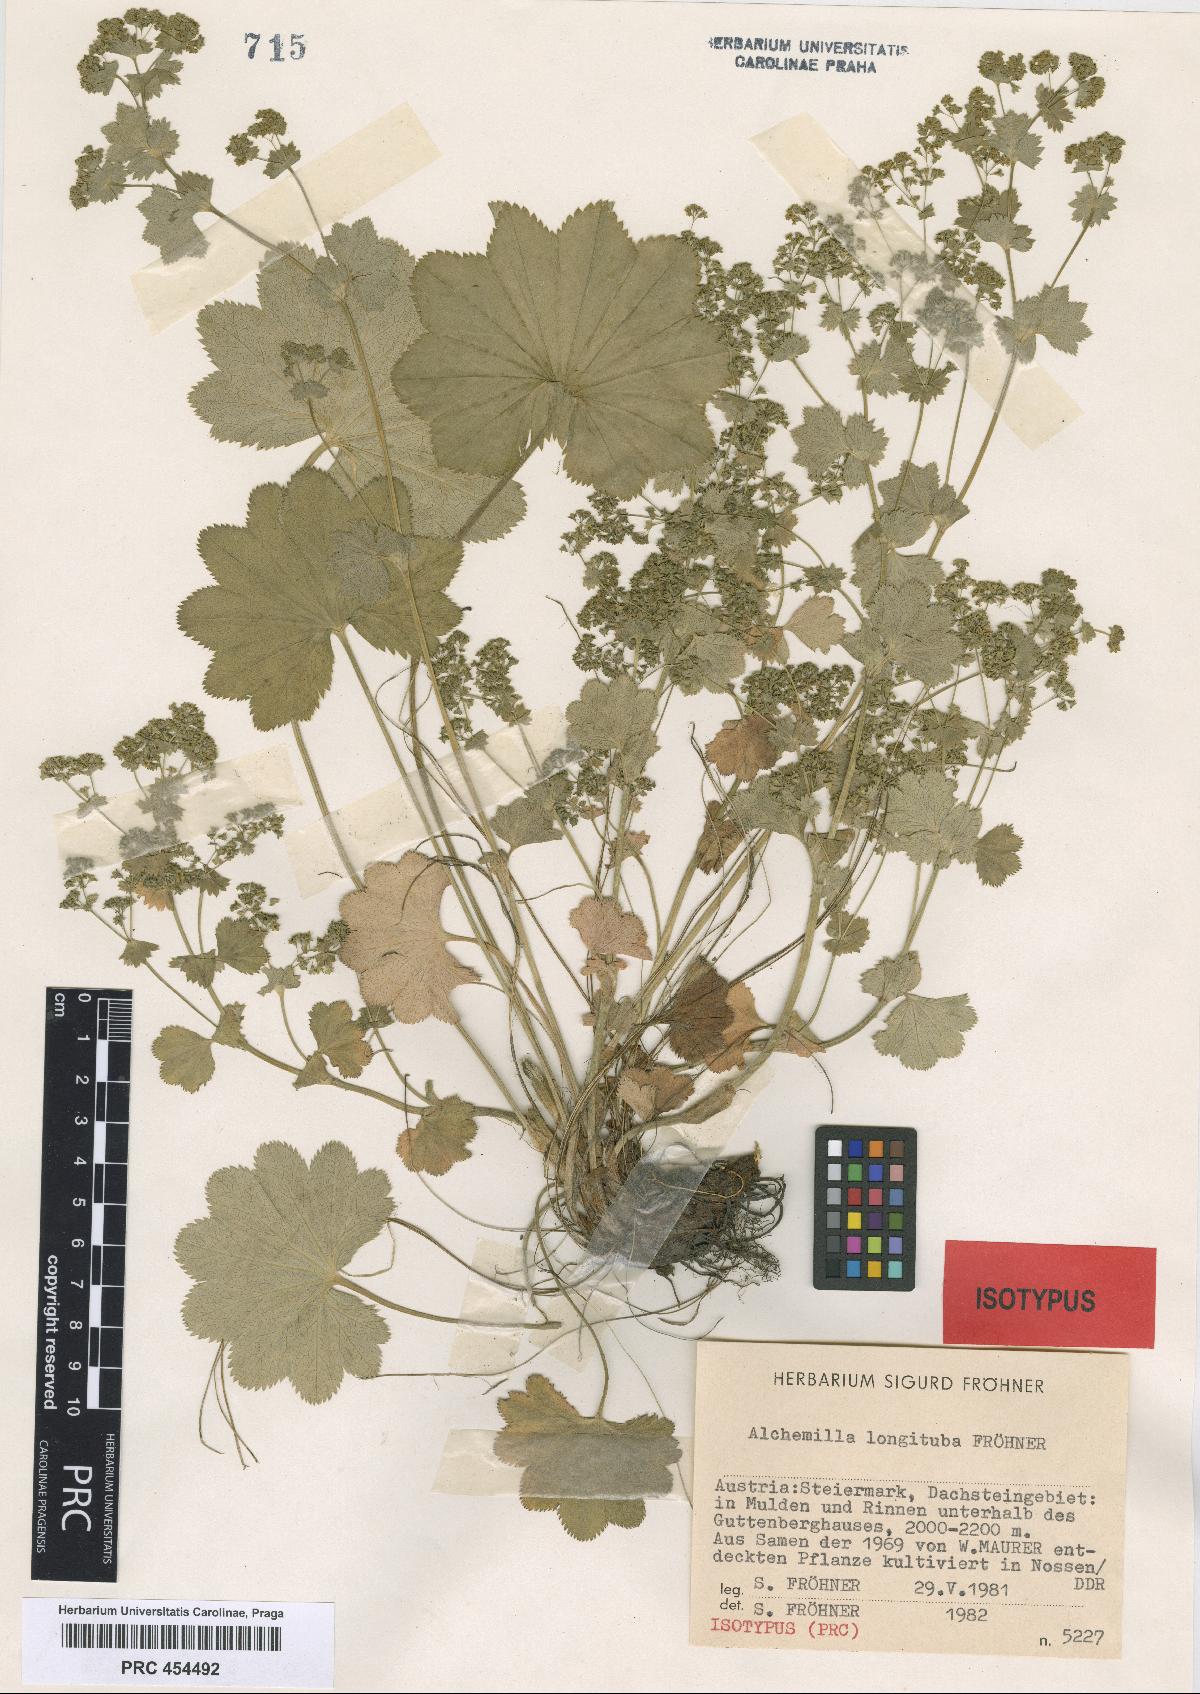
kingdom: Plantae
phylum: Tracheophyta
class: Magnoliopsida
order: Rosales
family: Rosaceae
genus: Alchemilla
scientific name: Alchemilla longituba
